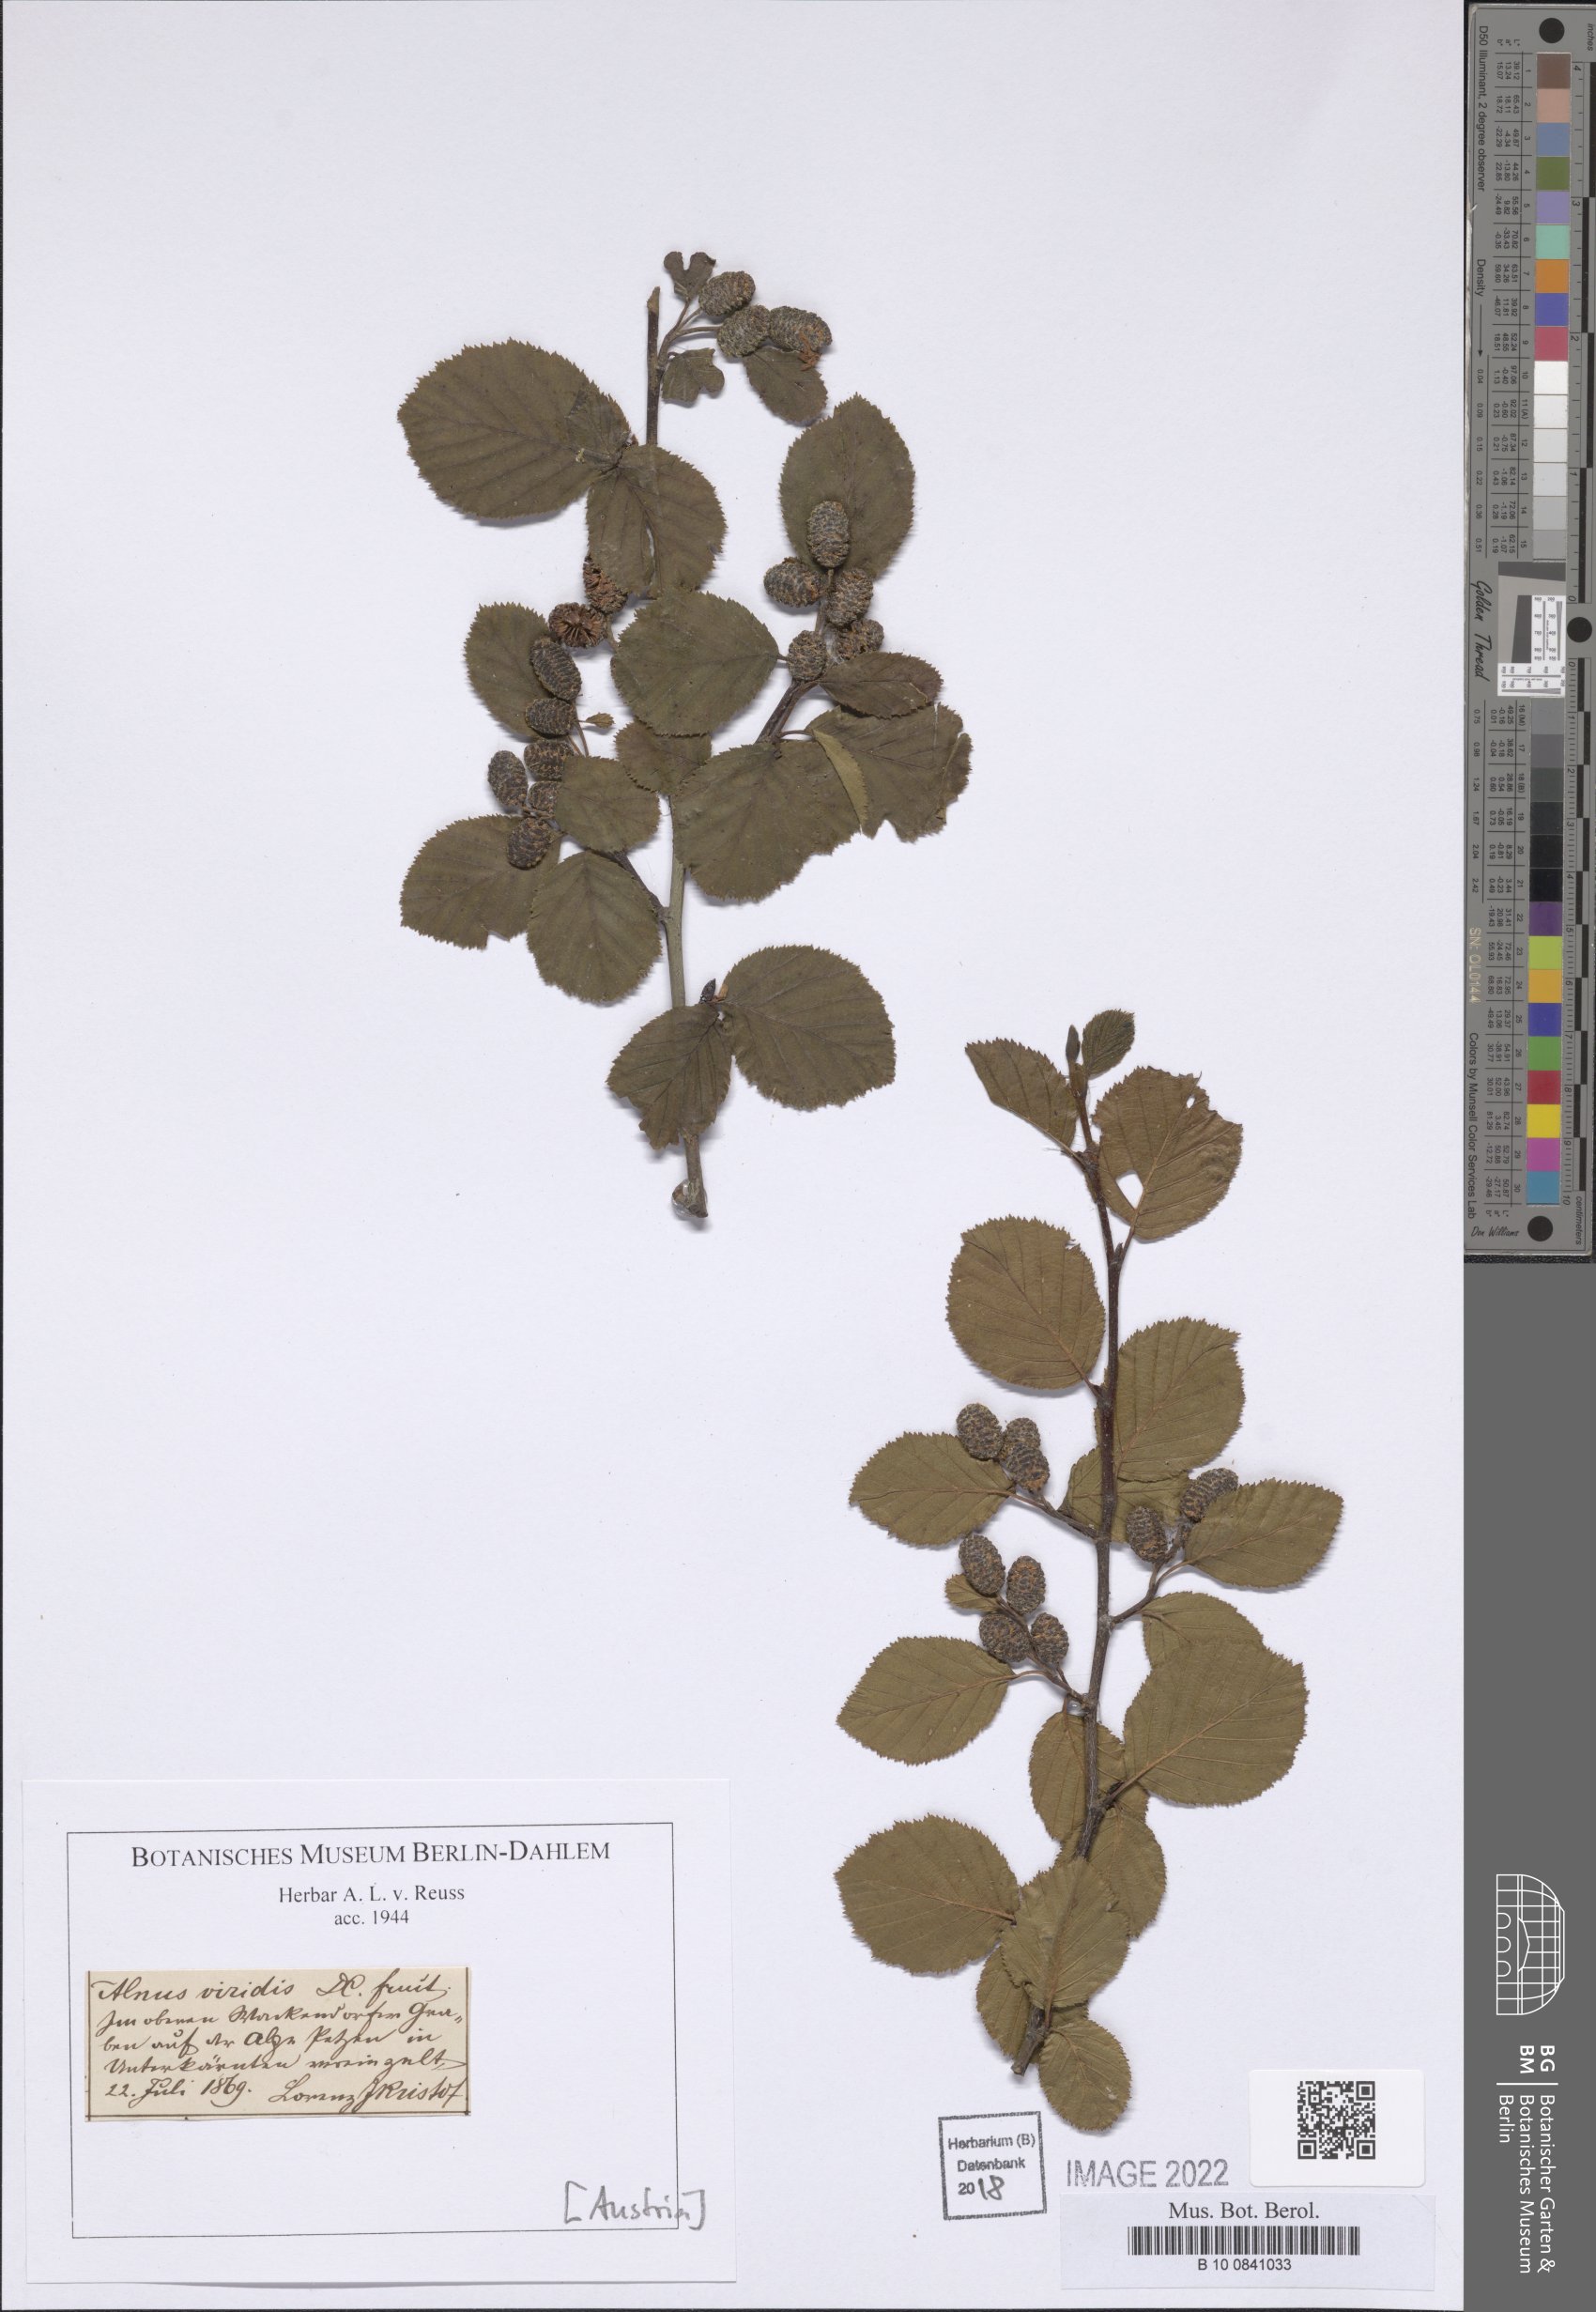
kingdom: Plantae
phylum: Tracheophyta
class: Magnoliopsida
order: Fagales
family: Betulaceae
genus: Alnus
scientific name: Alnus alnobetula
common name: Green alder
